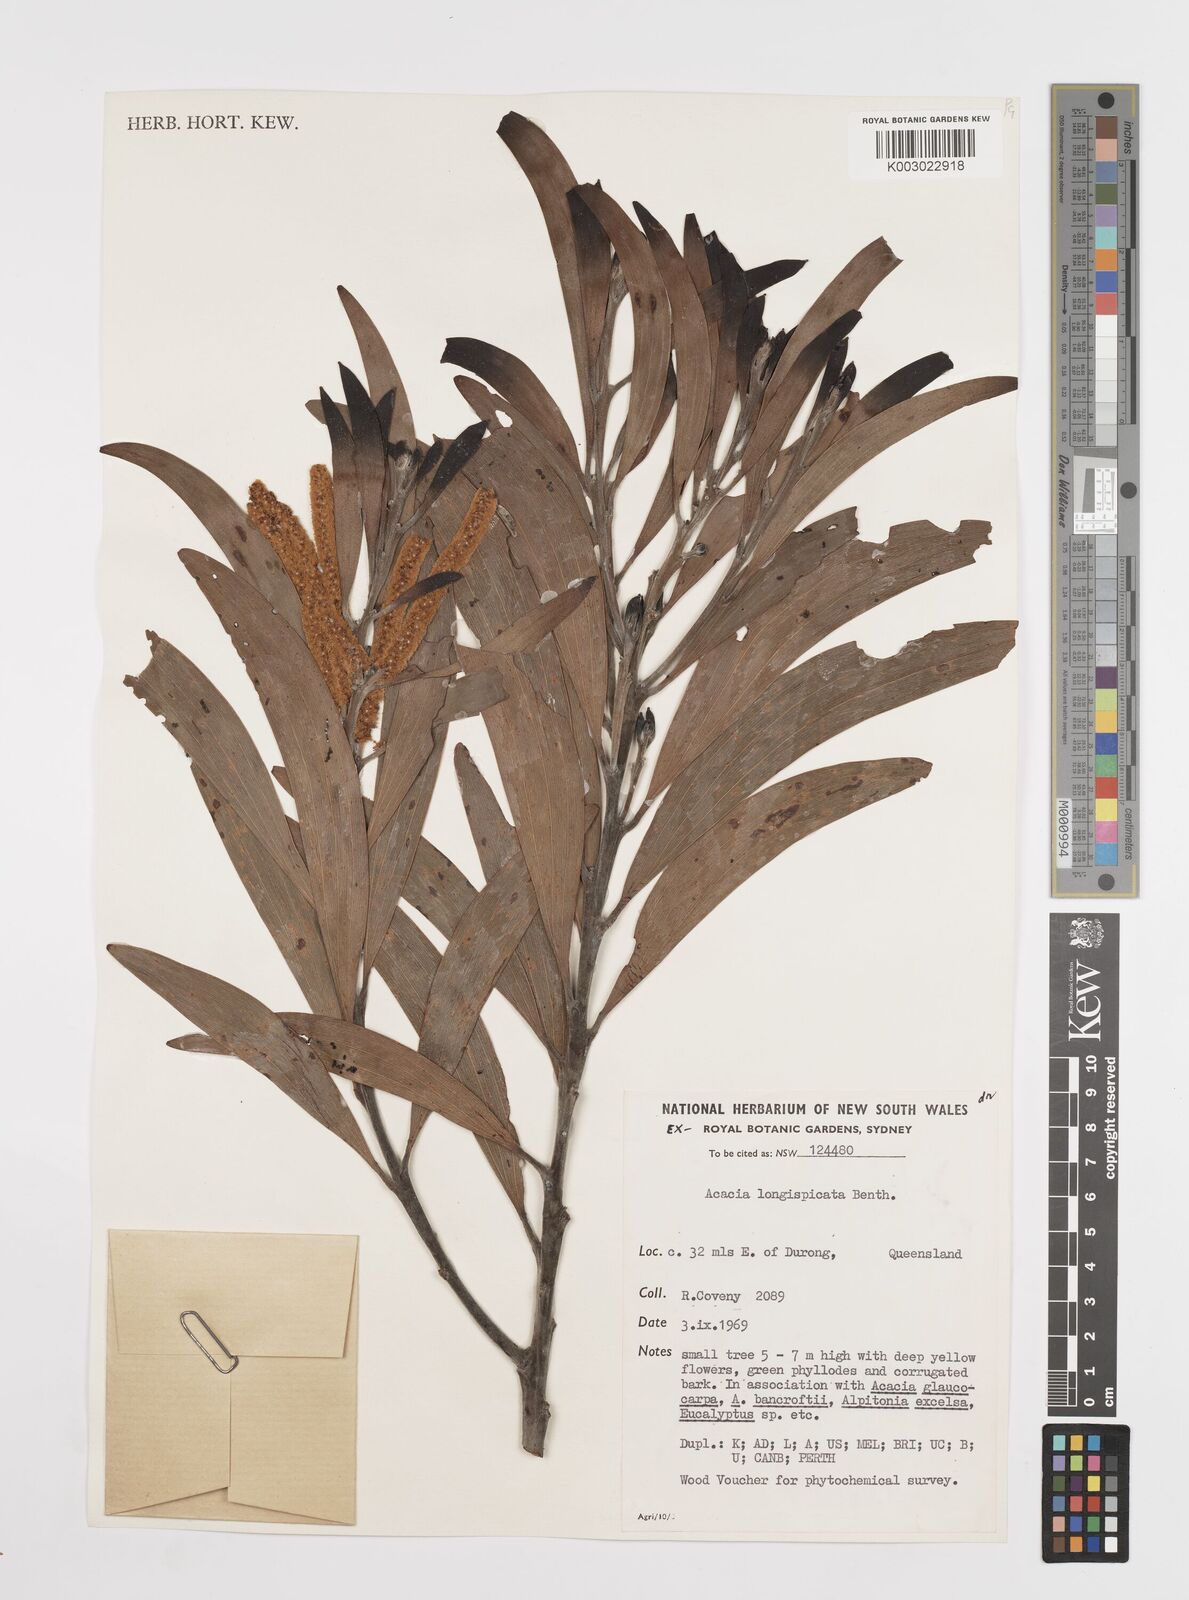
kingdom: Plantae
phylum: Tracheophyta
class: Magnoliopsida
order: Fabales
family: Fabaceae
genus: Acacia
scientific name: Acacia longispicata
